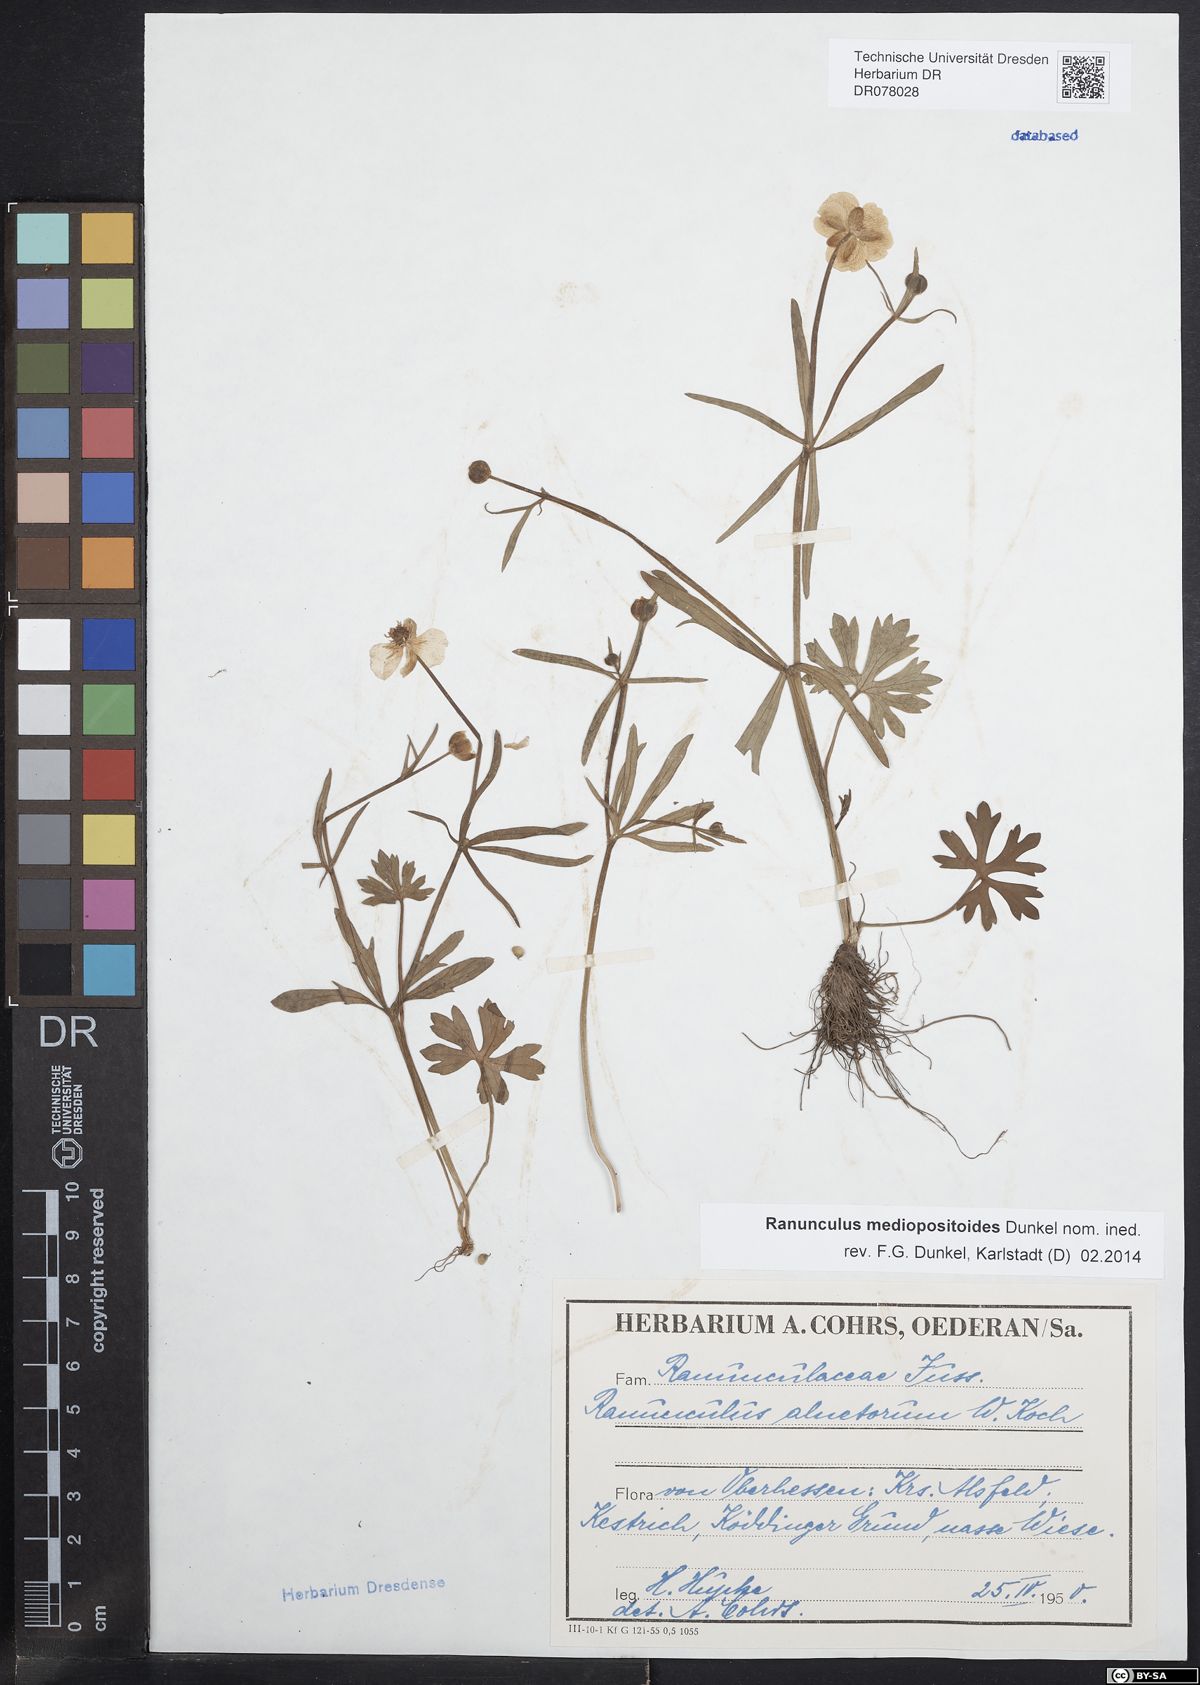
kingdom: Plantae
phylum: Tracheophyta
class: Magnoliopsida
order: Ranunculales
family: Ranunculaceae
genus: Ranunculus
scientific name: Ranunculus auricomus
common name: Goldilocks buttercup
